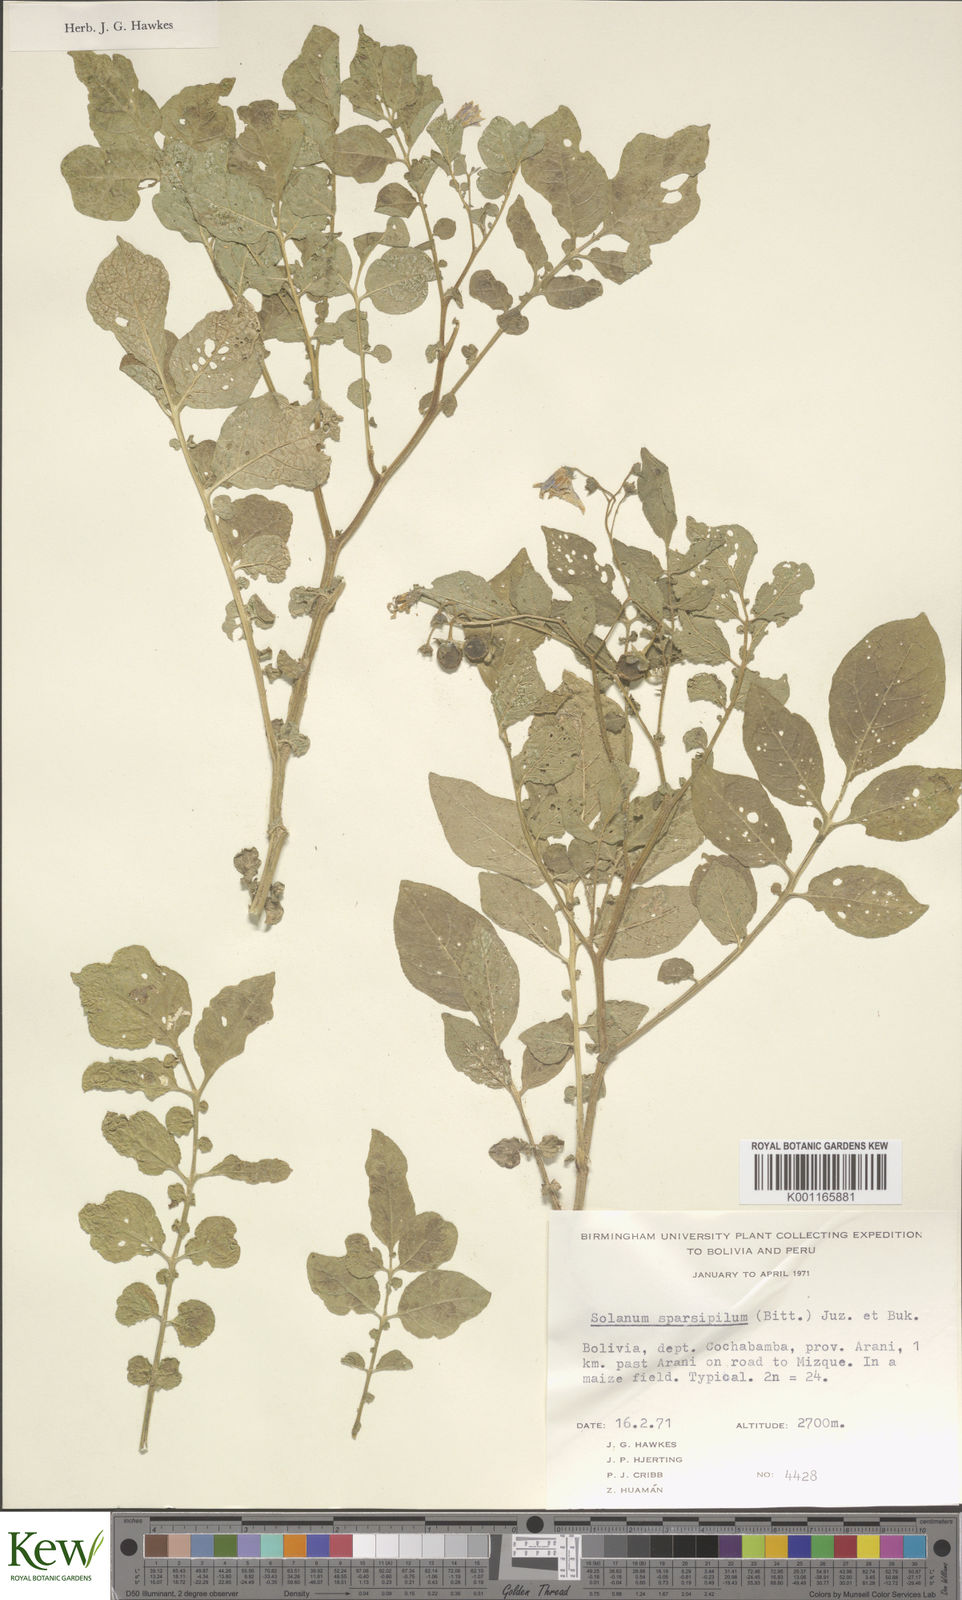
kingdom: Plantae
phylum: Tracheophyta
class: Magnoliopsida
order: Solanales
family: Solanaceae
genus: Solanum
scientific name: Solanum brevicaule
